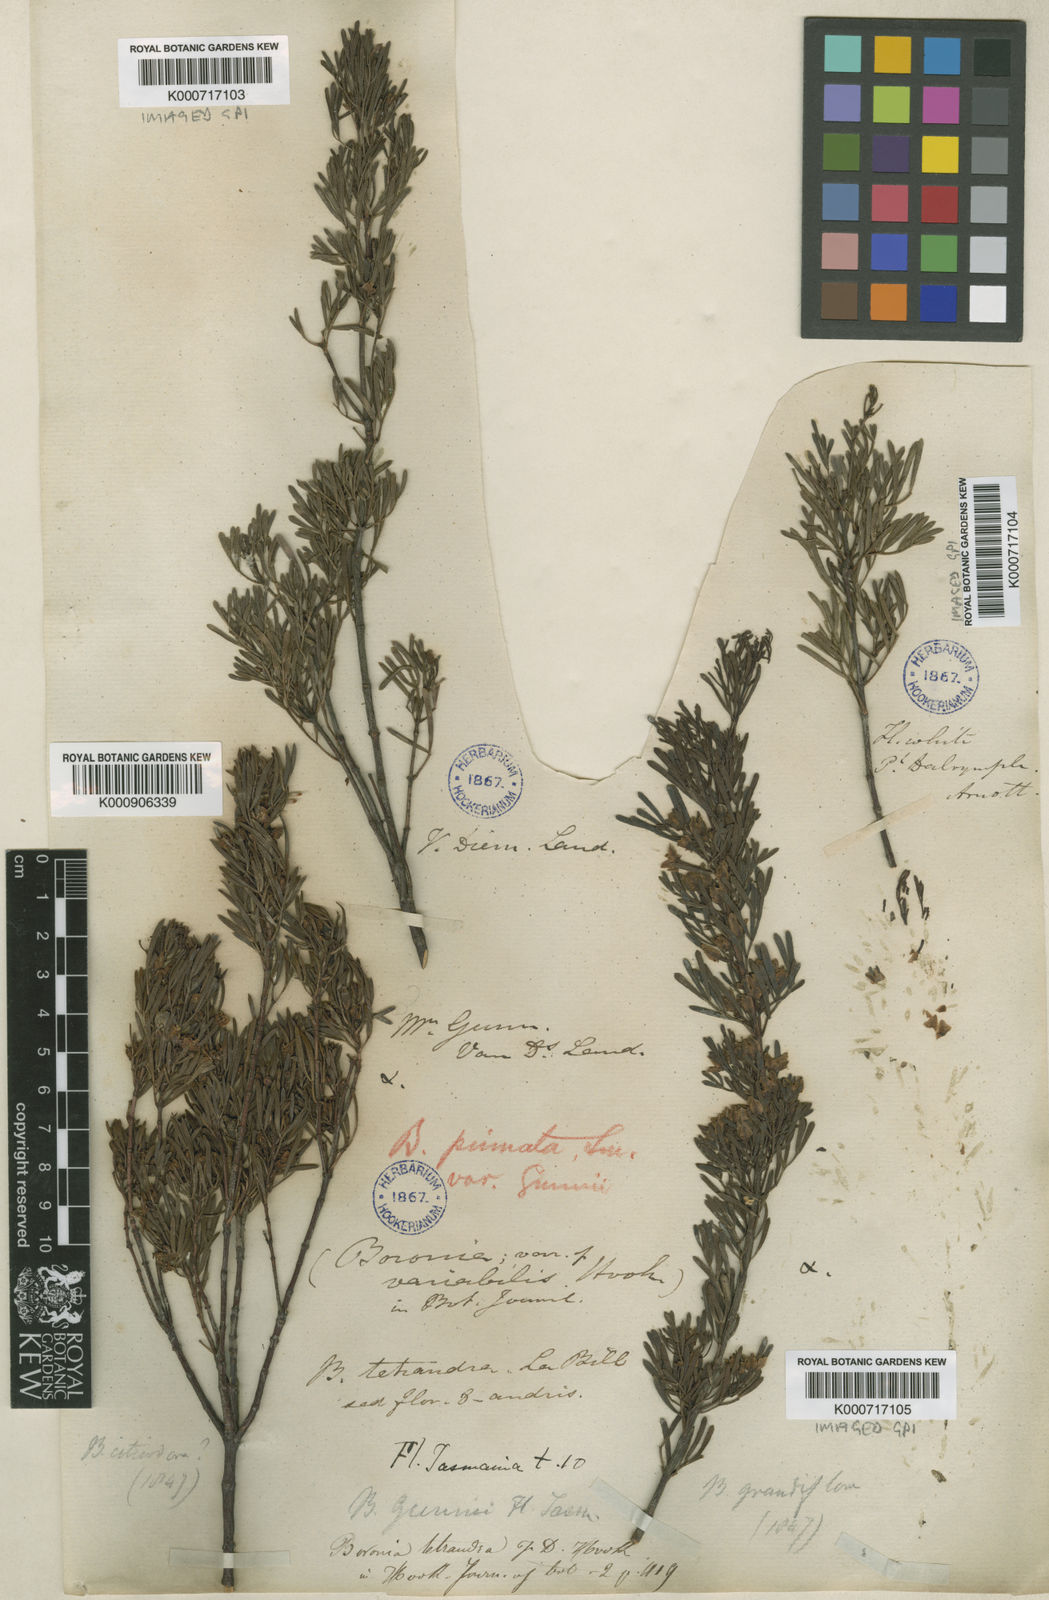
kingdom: Plantae
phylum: Tracheophyta
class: Magnoliopsida
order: Sapindales
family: Rutaceae
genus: Boronia
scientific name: Boronia gunnii
